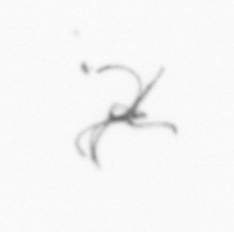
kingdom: Bacteria
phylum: Cyanobacteria
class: Cyanobacteriia
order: Cyanobacteriales
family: Microcoleaceae
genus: Trichodesmium
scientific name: Trichodesmium
